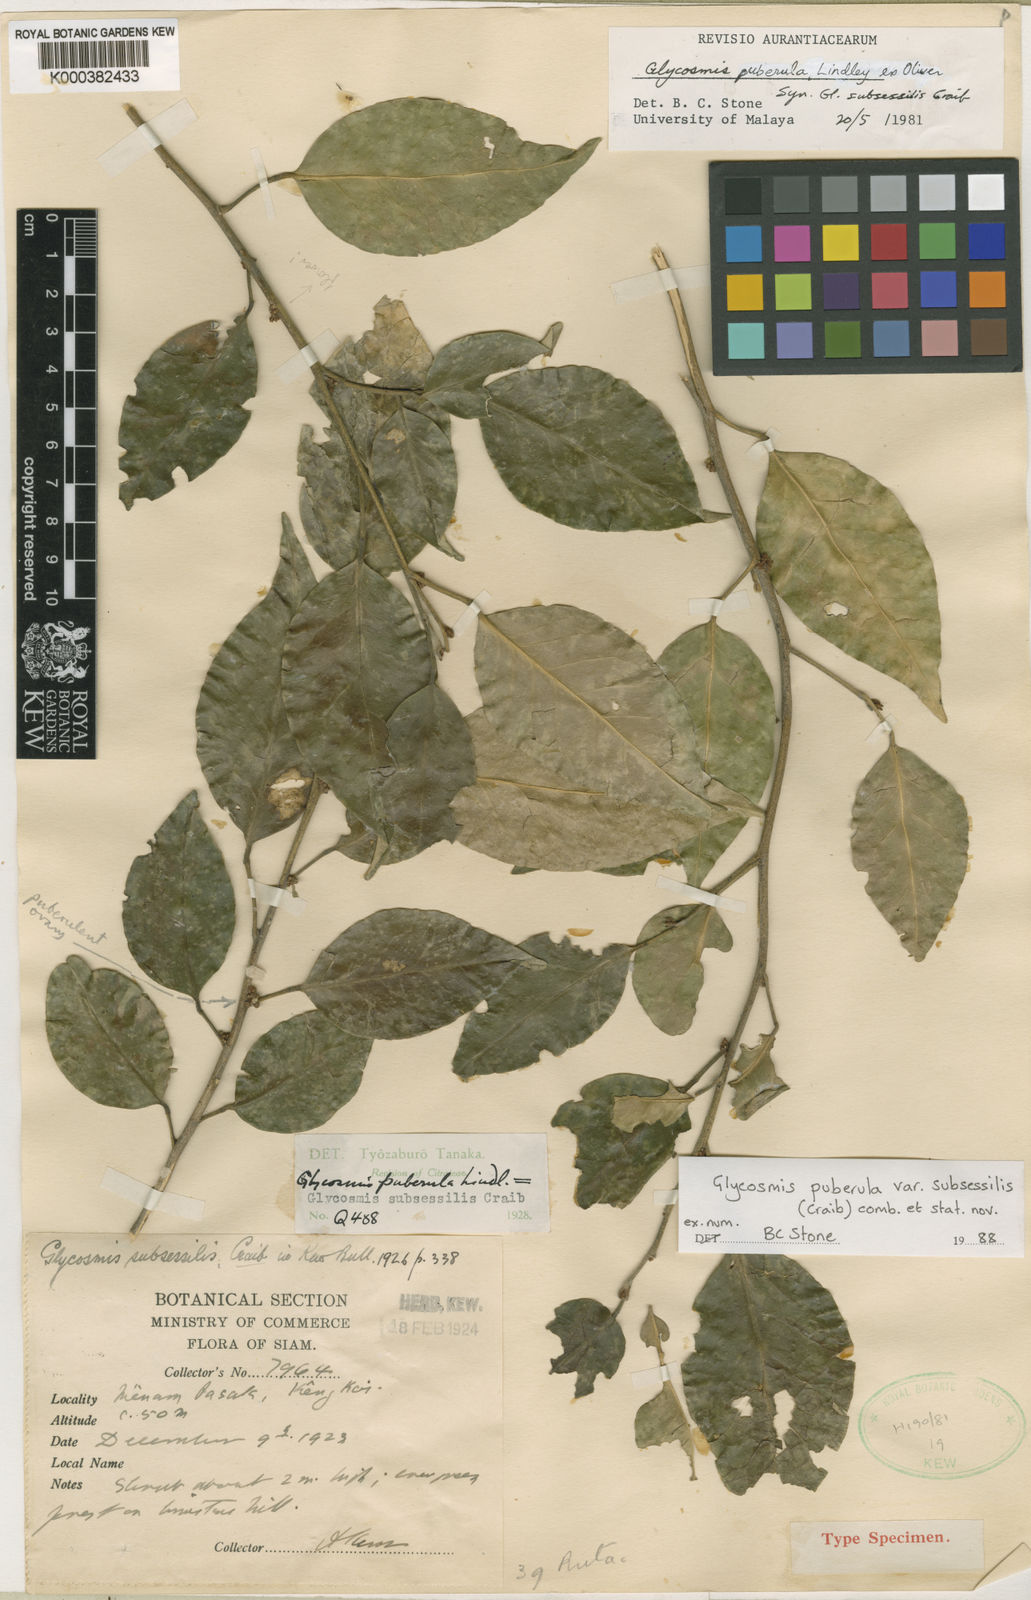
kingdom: Plantae
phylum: Tracheophyta
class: Magnoliopsida
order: Sapindales
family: Rutaceae
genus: Glycosmis
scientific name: Glycosmis puberula
